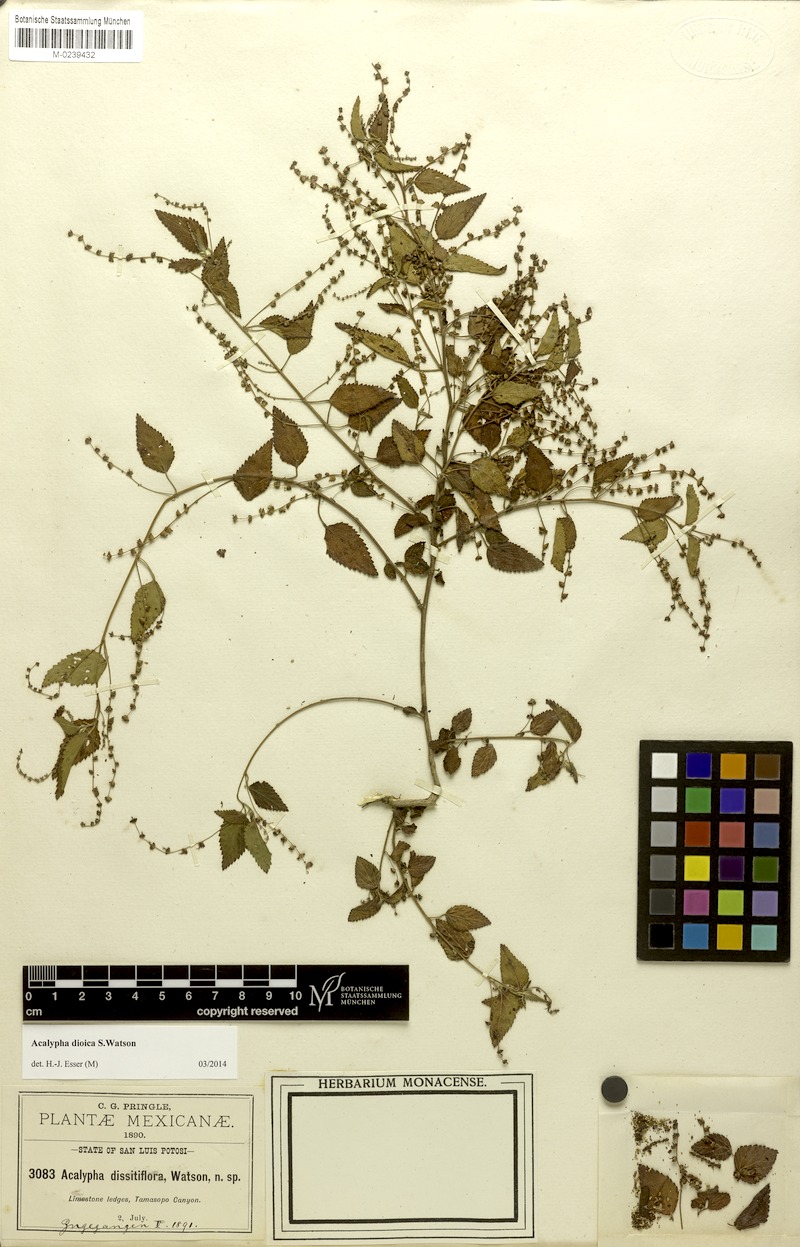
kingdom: Plantae
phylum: Tracheophyta
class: Magnoliopsida
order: Malpighiales
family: Euphorbiaceae
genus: Acalypha
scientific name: Acalypha dioica
